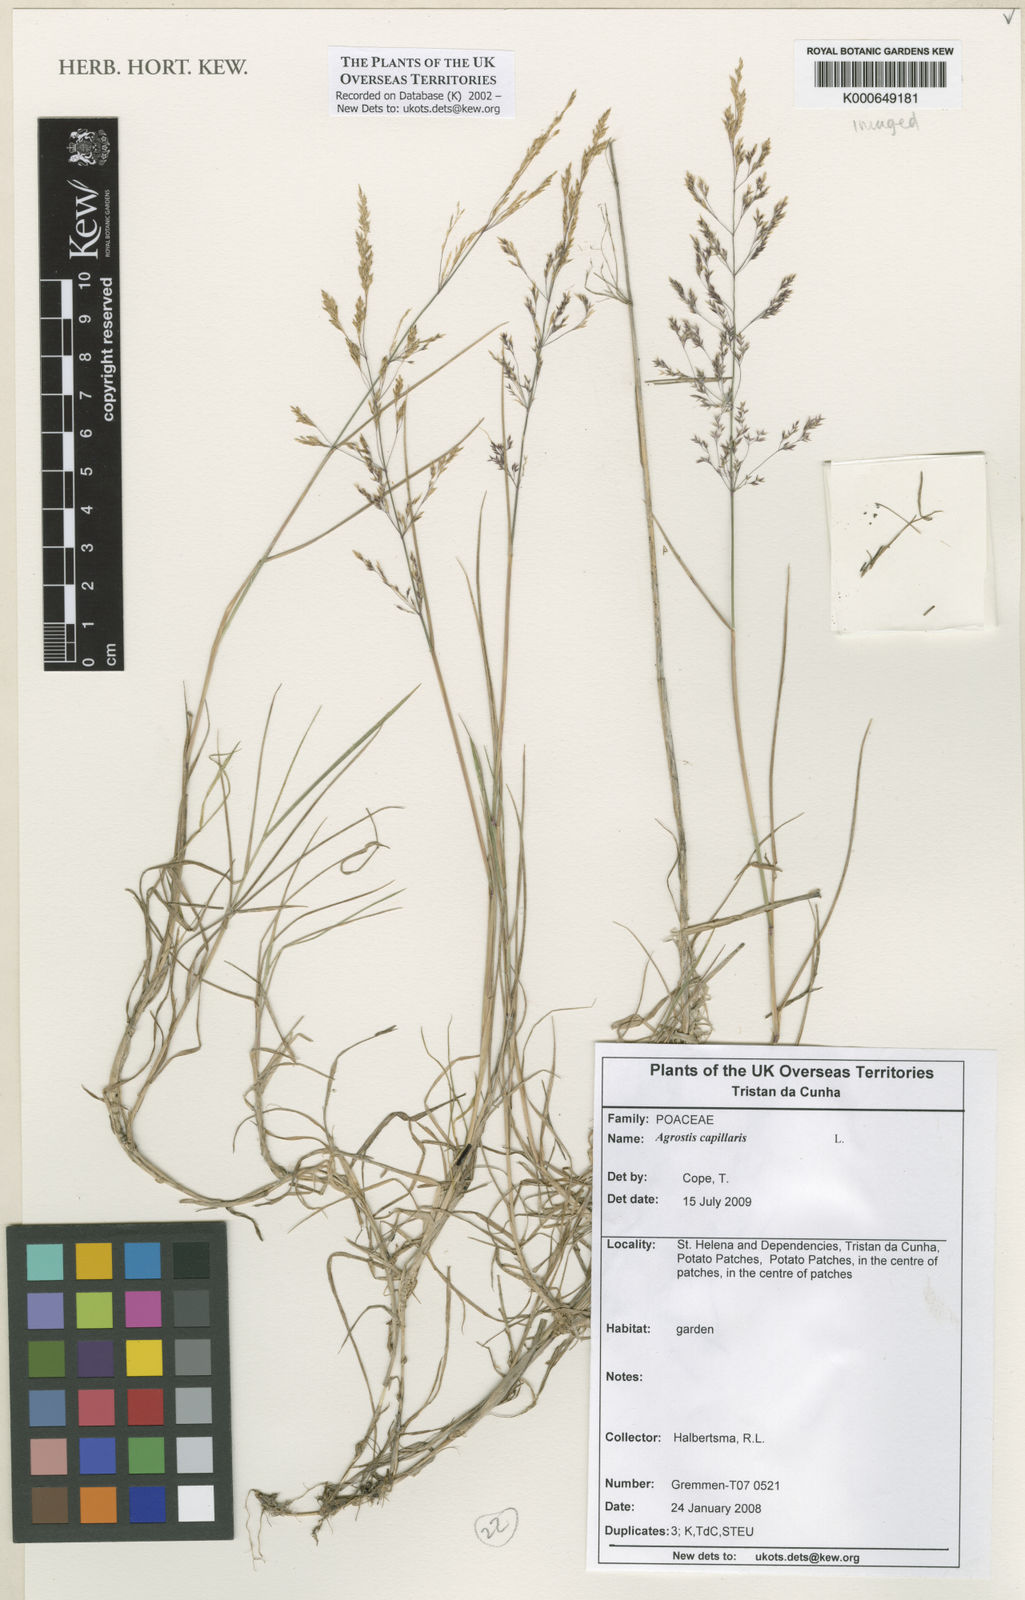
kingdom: Plantae
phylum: Tracheophyta
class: Liliopsida
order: Poales
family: Poaceae
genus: Agrostis
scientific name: Agrostis capillaris
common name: Colonial bentgrass
